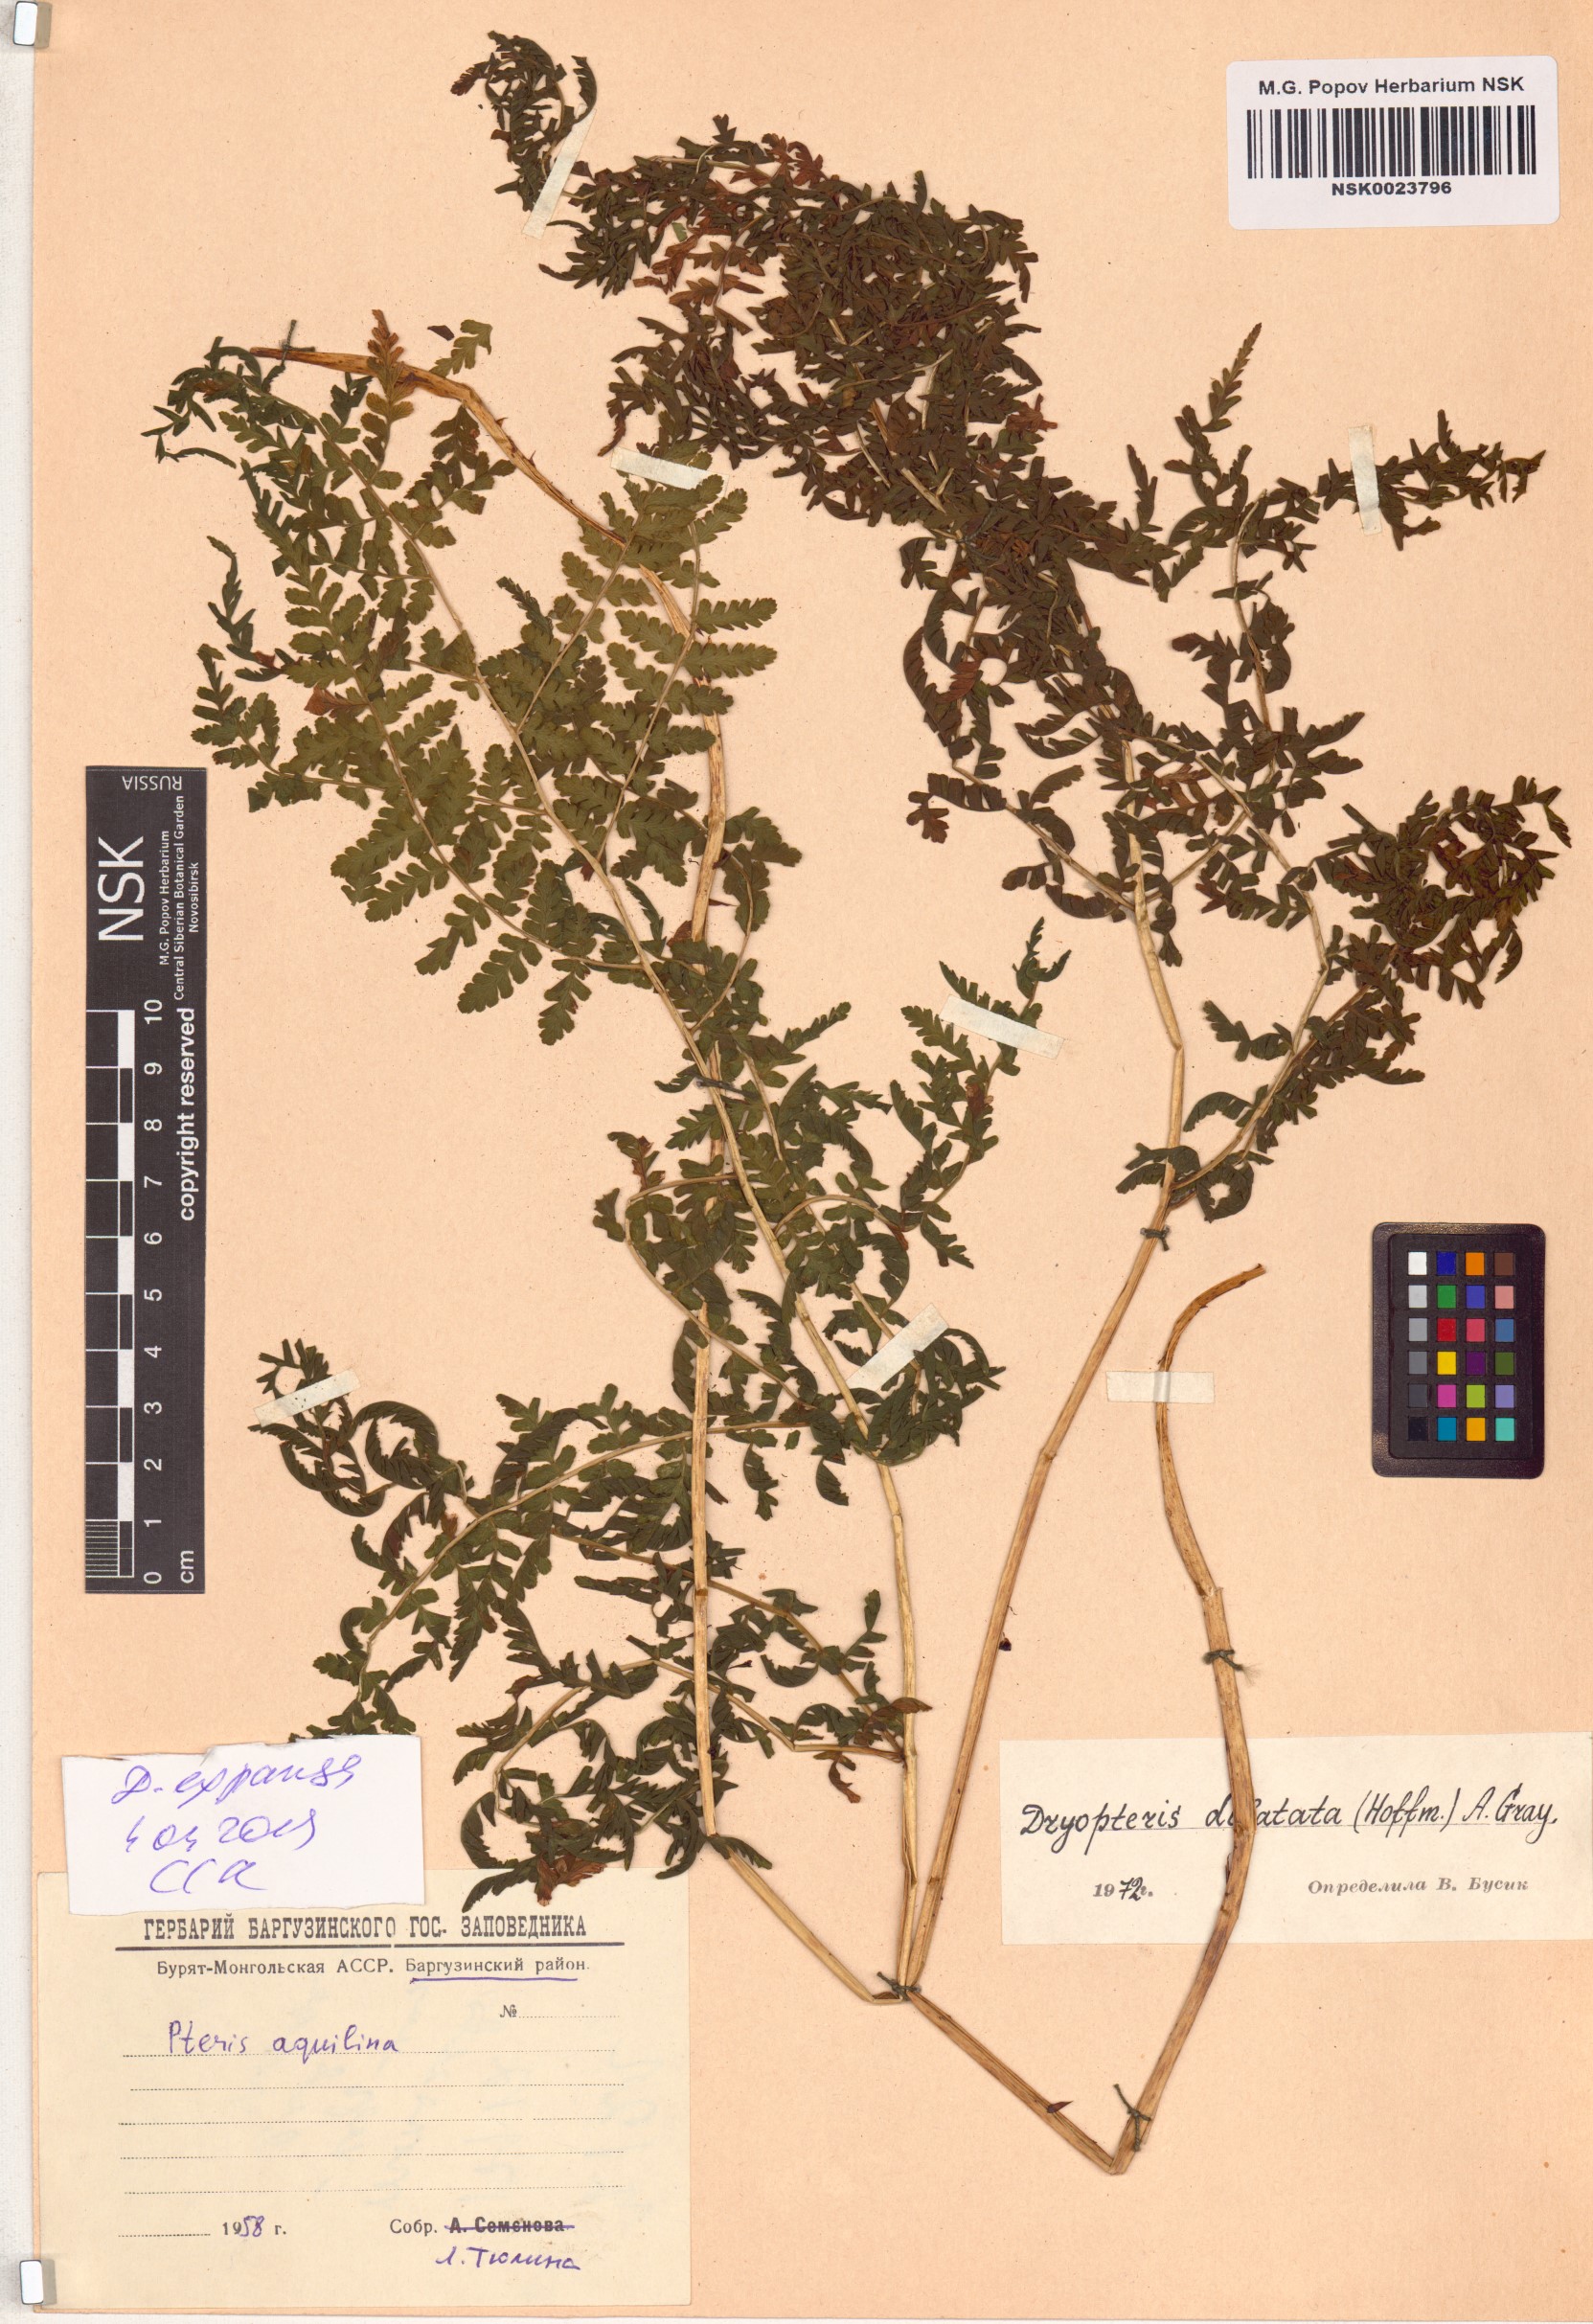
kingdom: Plantae
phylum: Tracheophyta
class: Polypodiopsida
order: Polypodiales
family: Dryopteridaceae
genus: Dryopteris
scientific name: Dryopteris expansa
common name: Northern buckler fern
